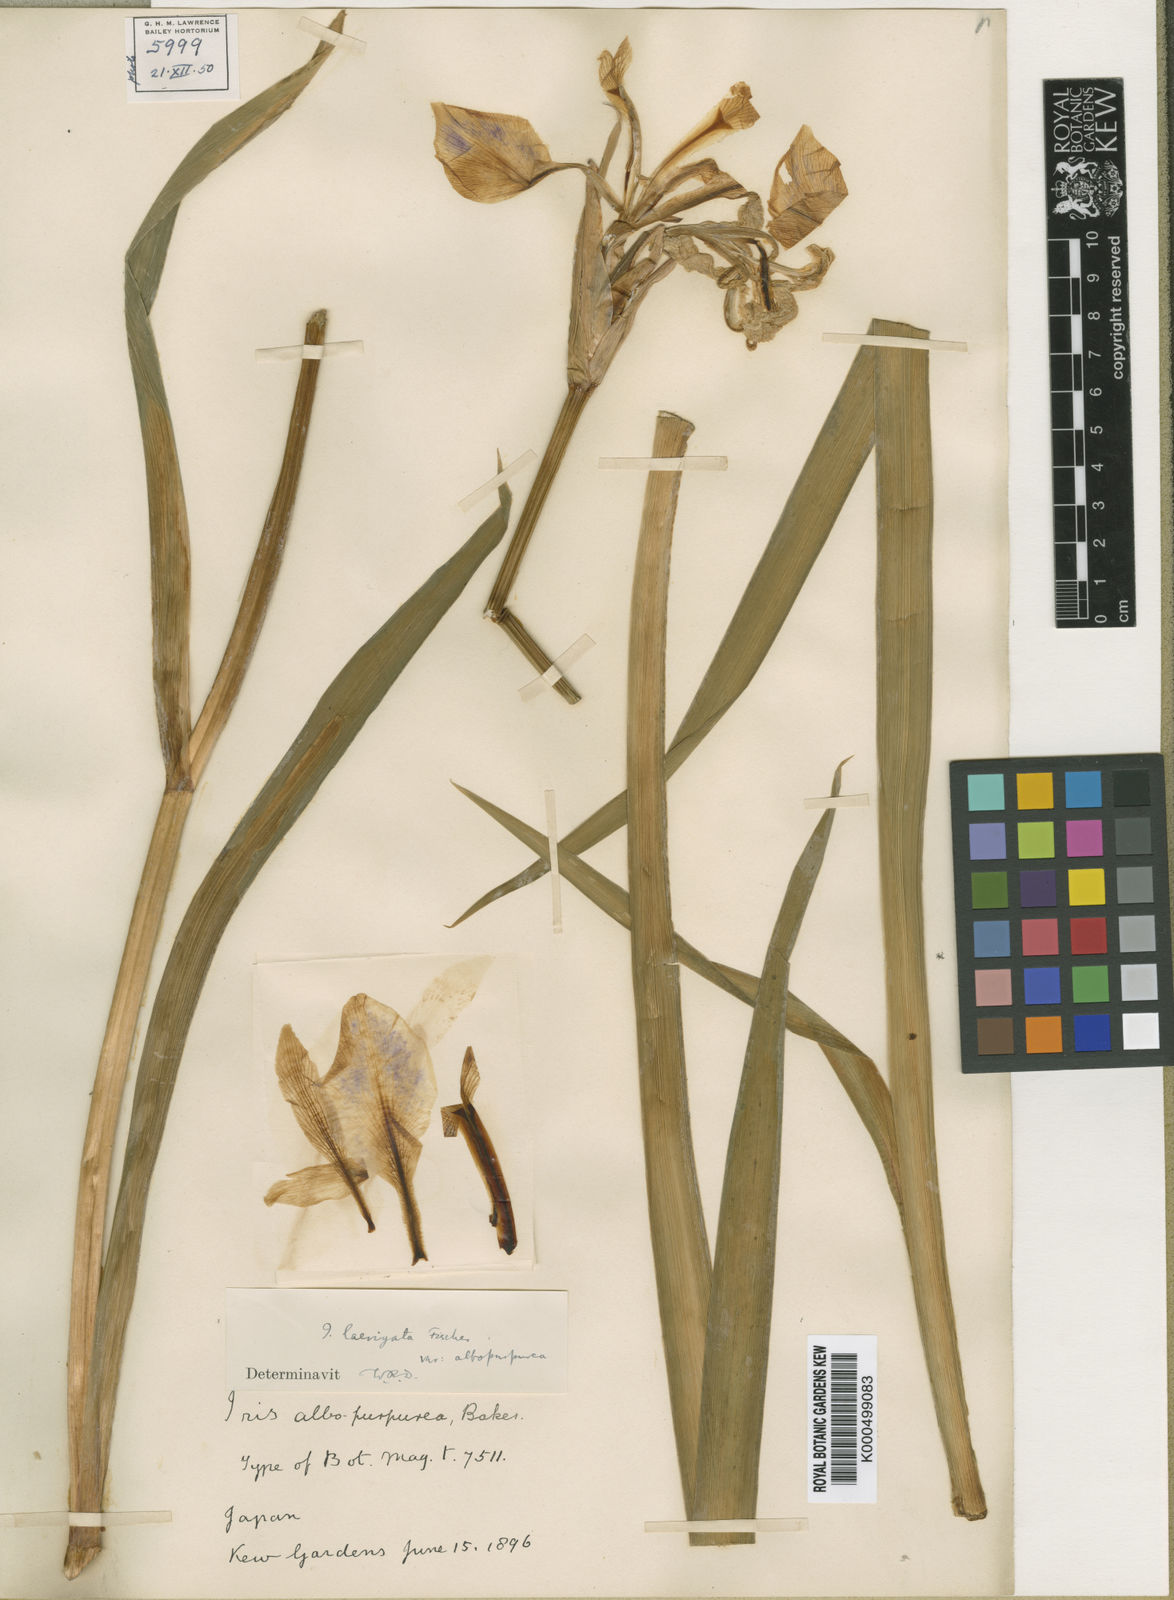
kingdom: Plantae
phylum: Tracheophyta
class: Liliopsida
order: Asparagales
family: Iridaceae
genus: Iris
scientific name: Iris laevigata
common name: Japanese iris
